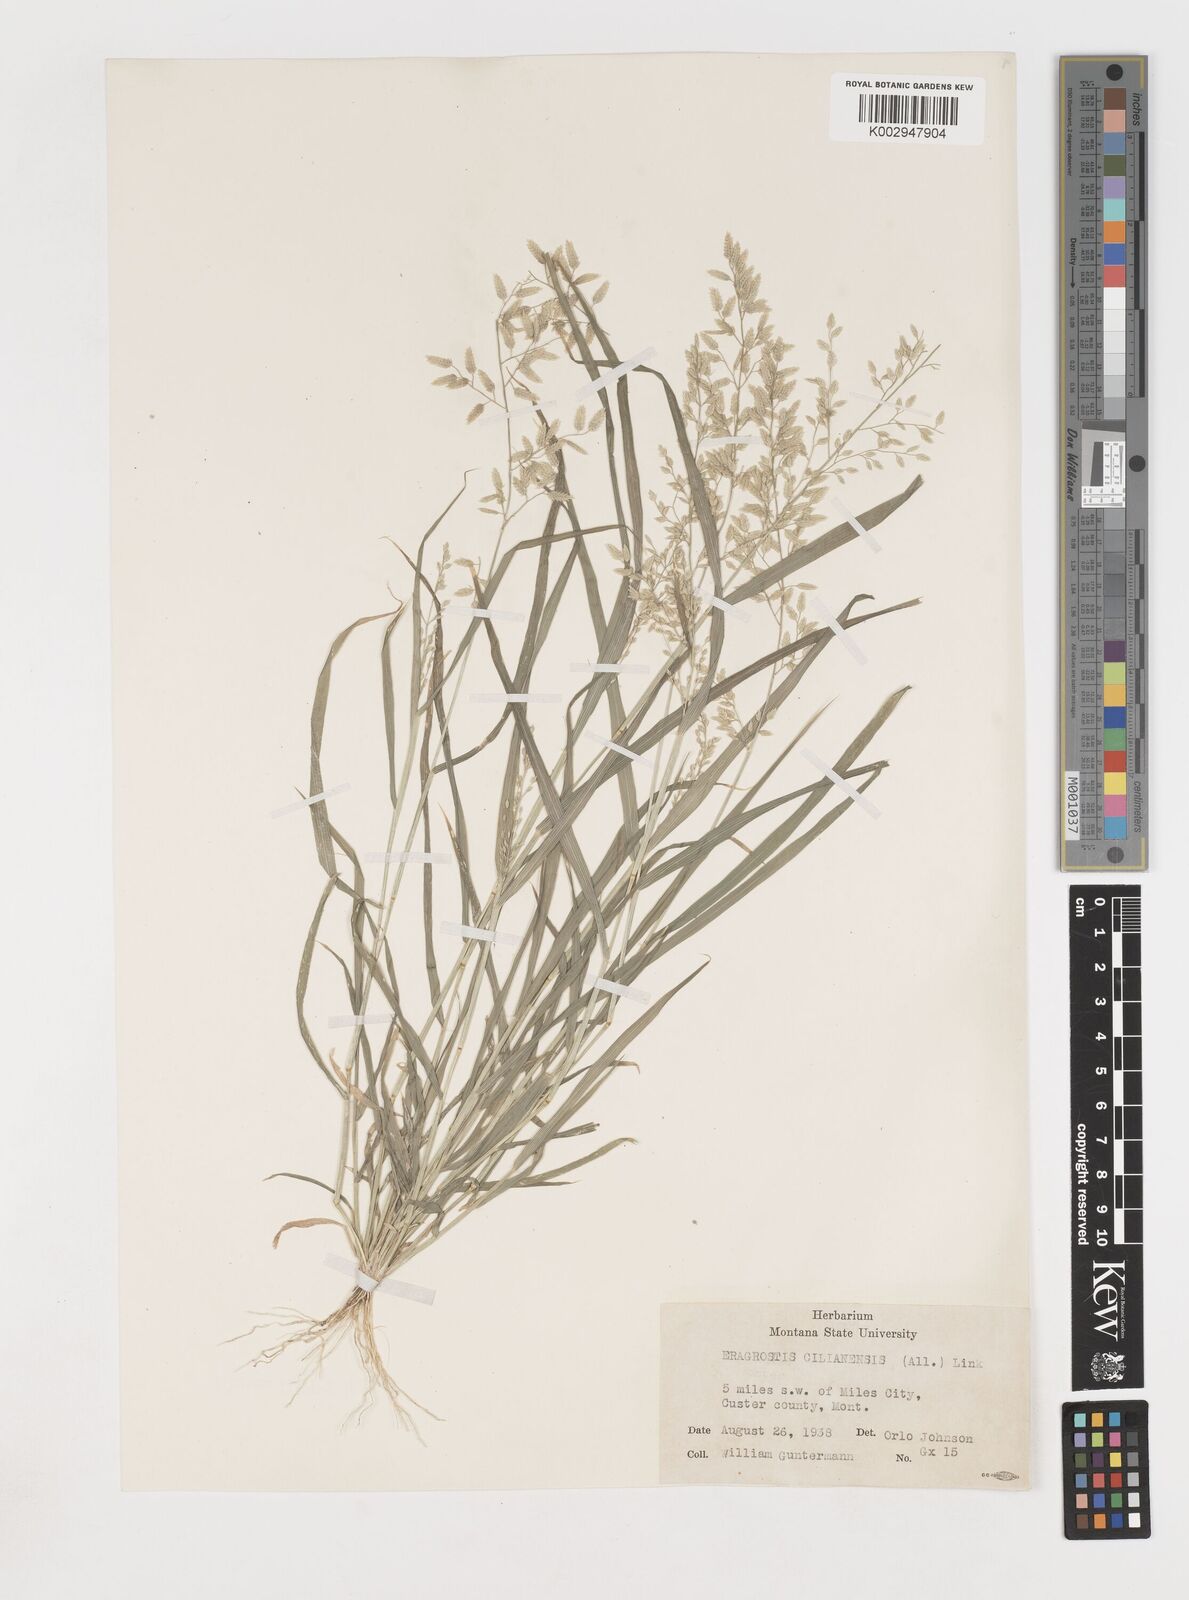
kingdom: Plantae
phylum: Tracheophyta
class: Liliopsida
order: Poales
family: Poaceae
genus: Eragrostis
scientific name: Eragrostis
